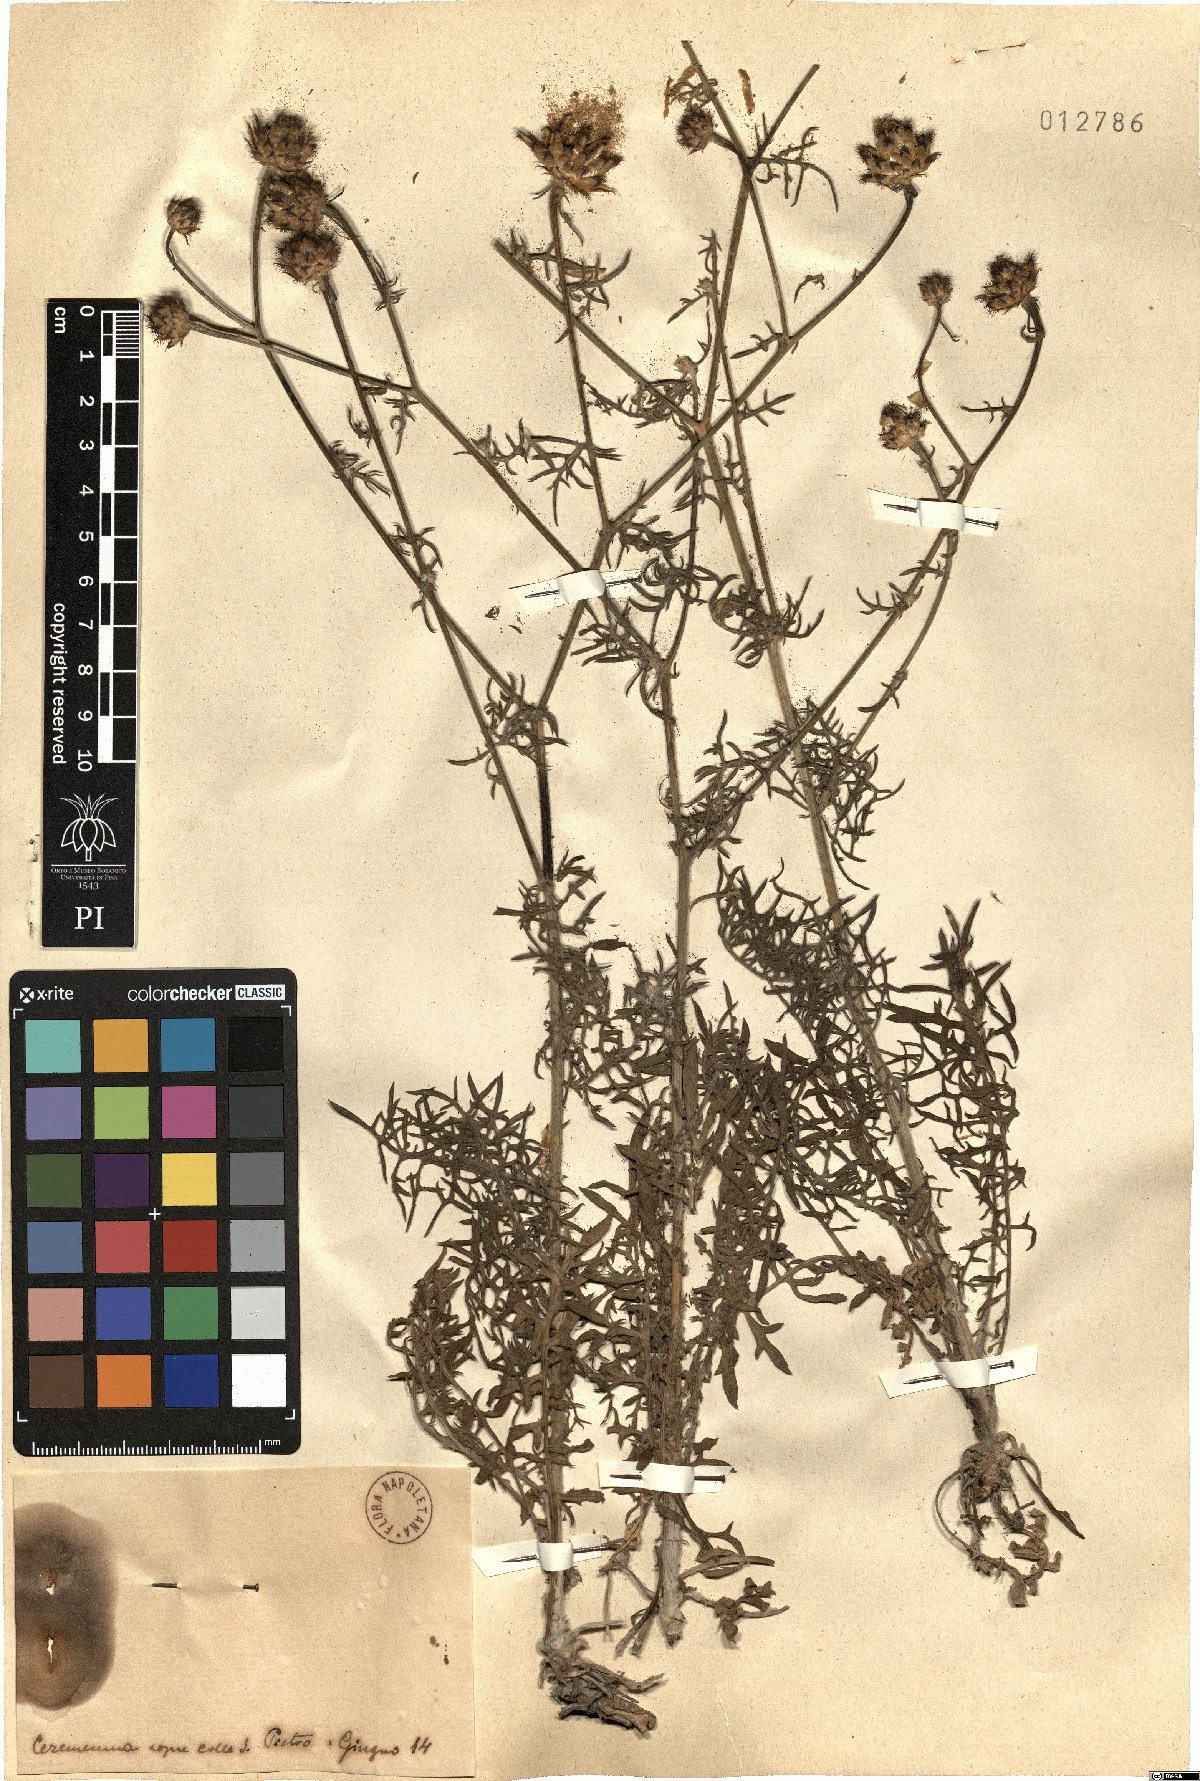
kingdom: Plantae
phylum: Tracheophyta
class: Magnoliopsida
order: Asterales
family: Asteraceae
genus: Centaurea
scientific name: Centaurea
